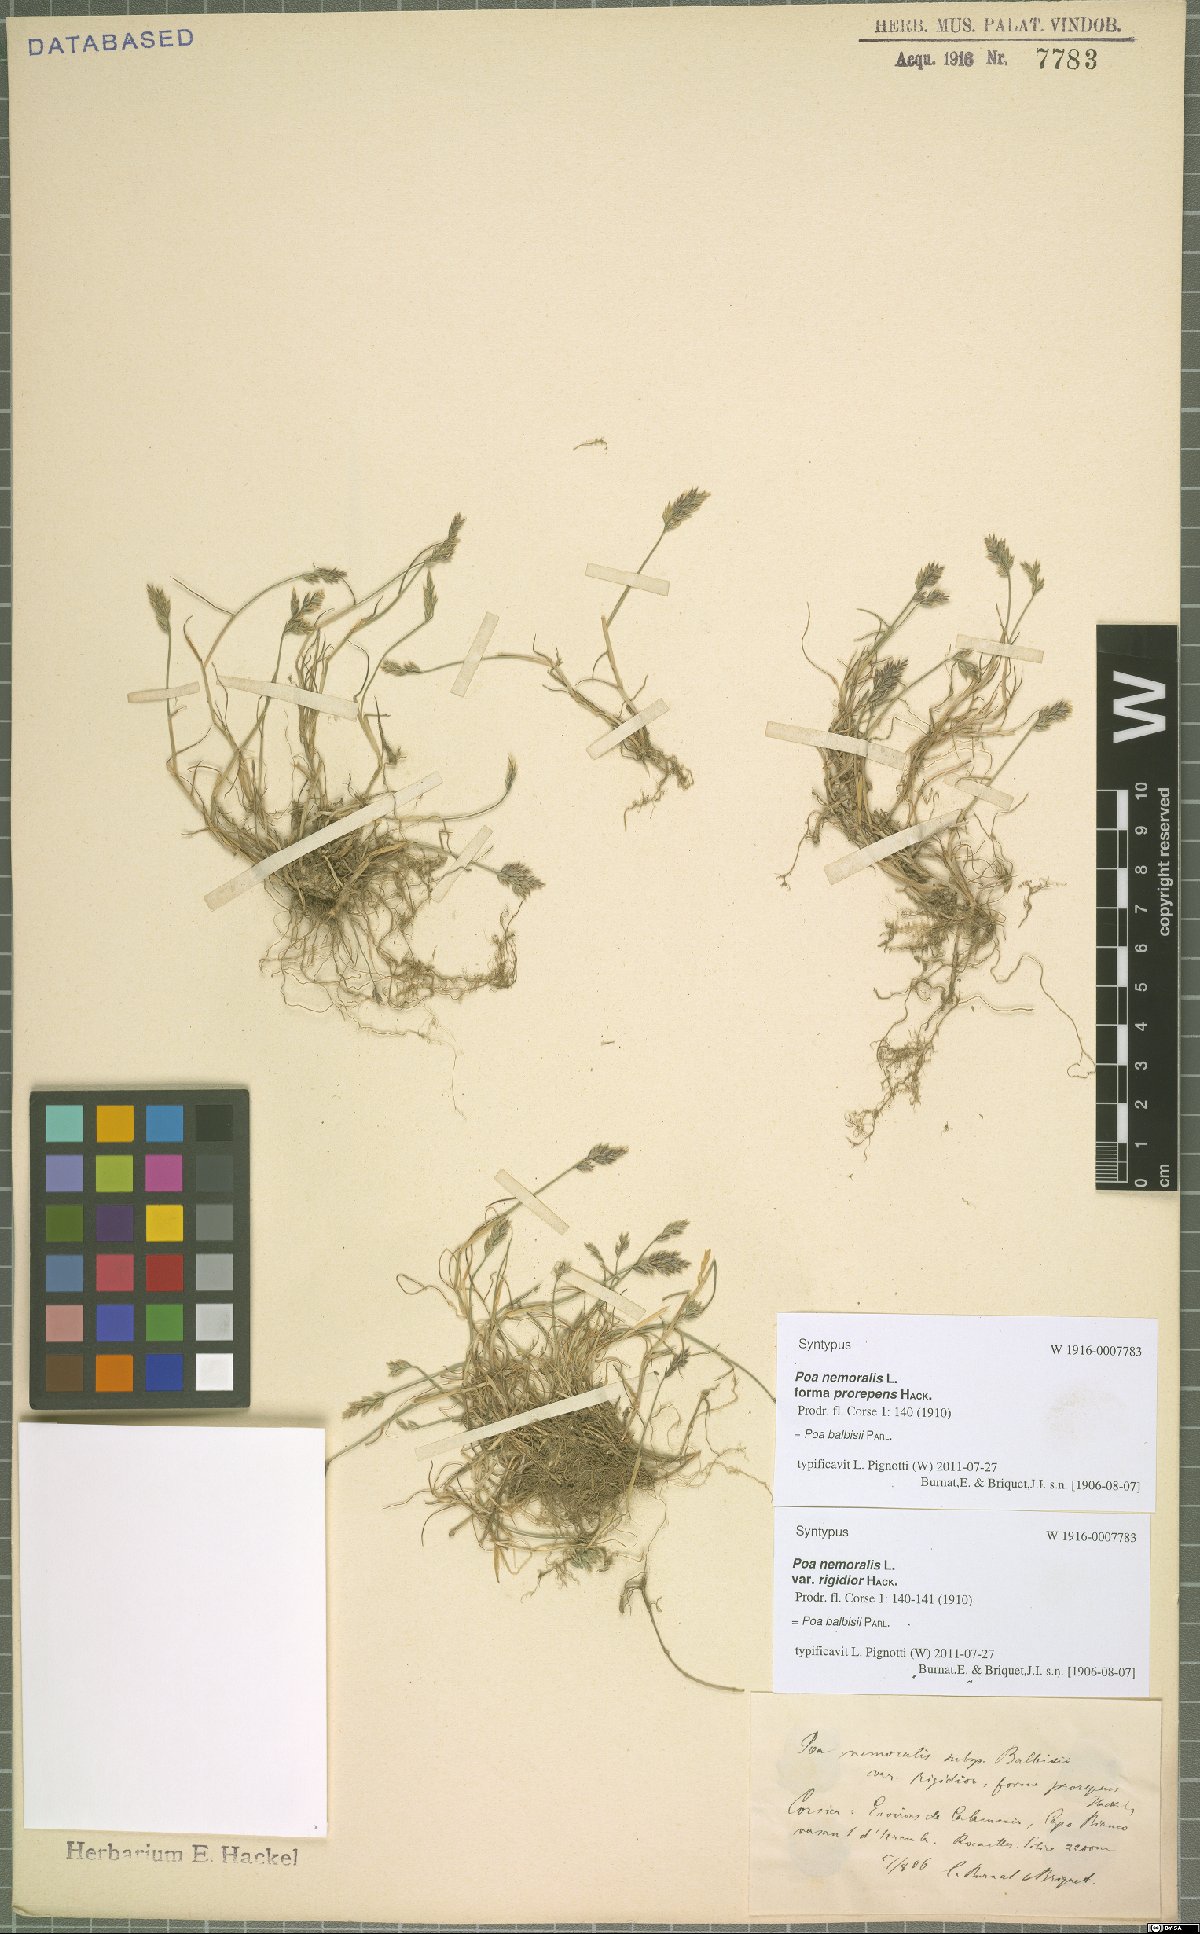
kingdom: Plantae
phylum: Tracheophyta
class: Liliopsida
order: Poales
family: Poaceae
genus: Poa
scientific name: Poa balbisii
